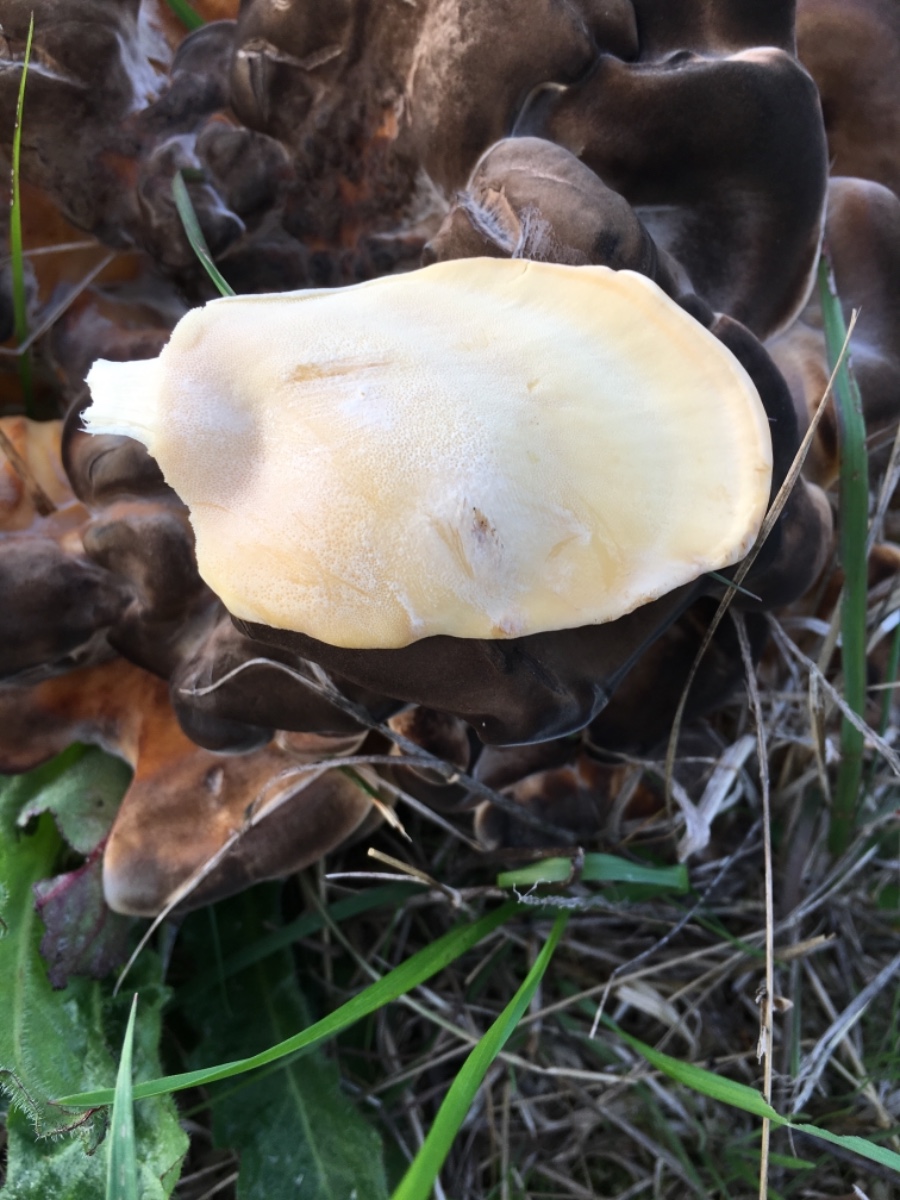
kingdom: Fungi
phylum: Basidiomycota
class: Agaricomycetes
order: Polyporales
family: Meripilaceae
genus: Meripilus
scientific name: Meripilus giganteus
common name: kæmpeporesvamp
